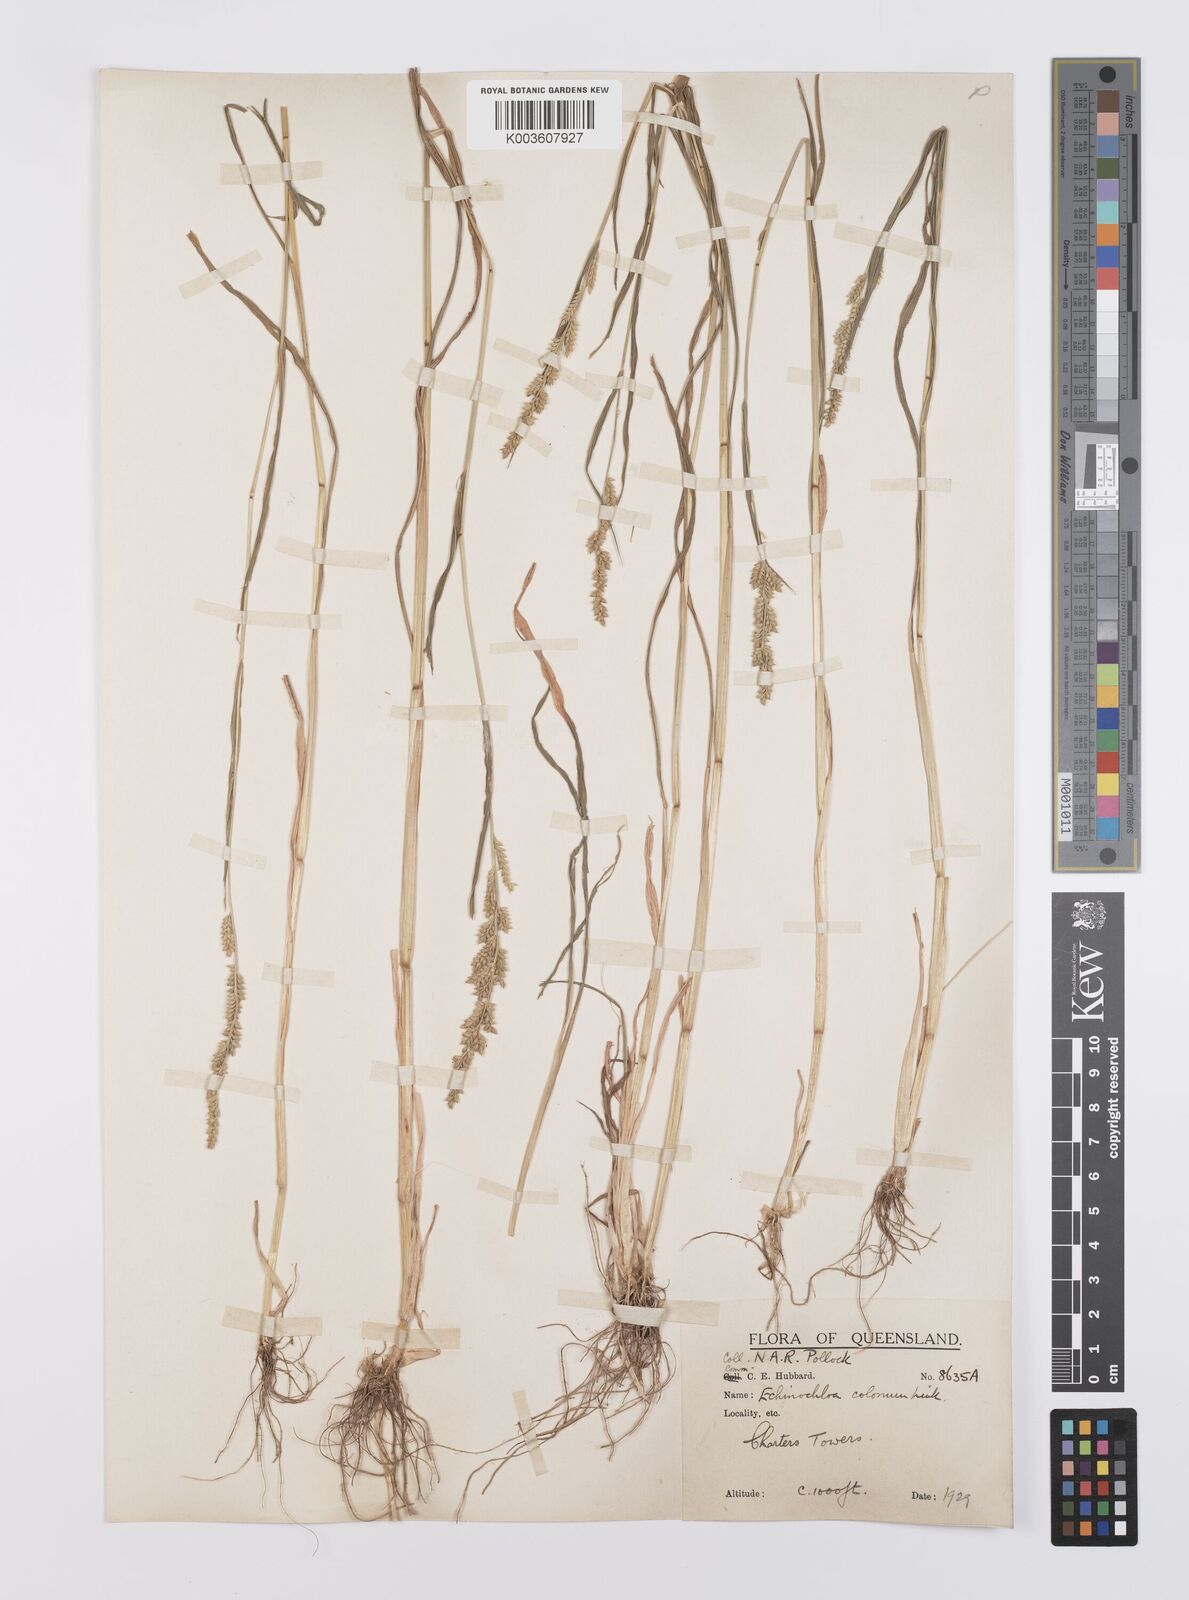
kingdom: Plantae
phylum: Tracheophyta
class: Liliopsida
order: Poales
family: Poaceae
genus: Echinochloa
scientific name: Echinochloa colonum
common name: Jungle rice
